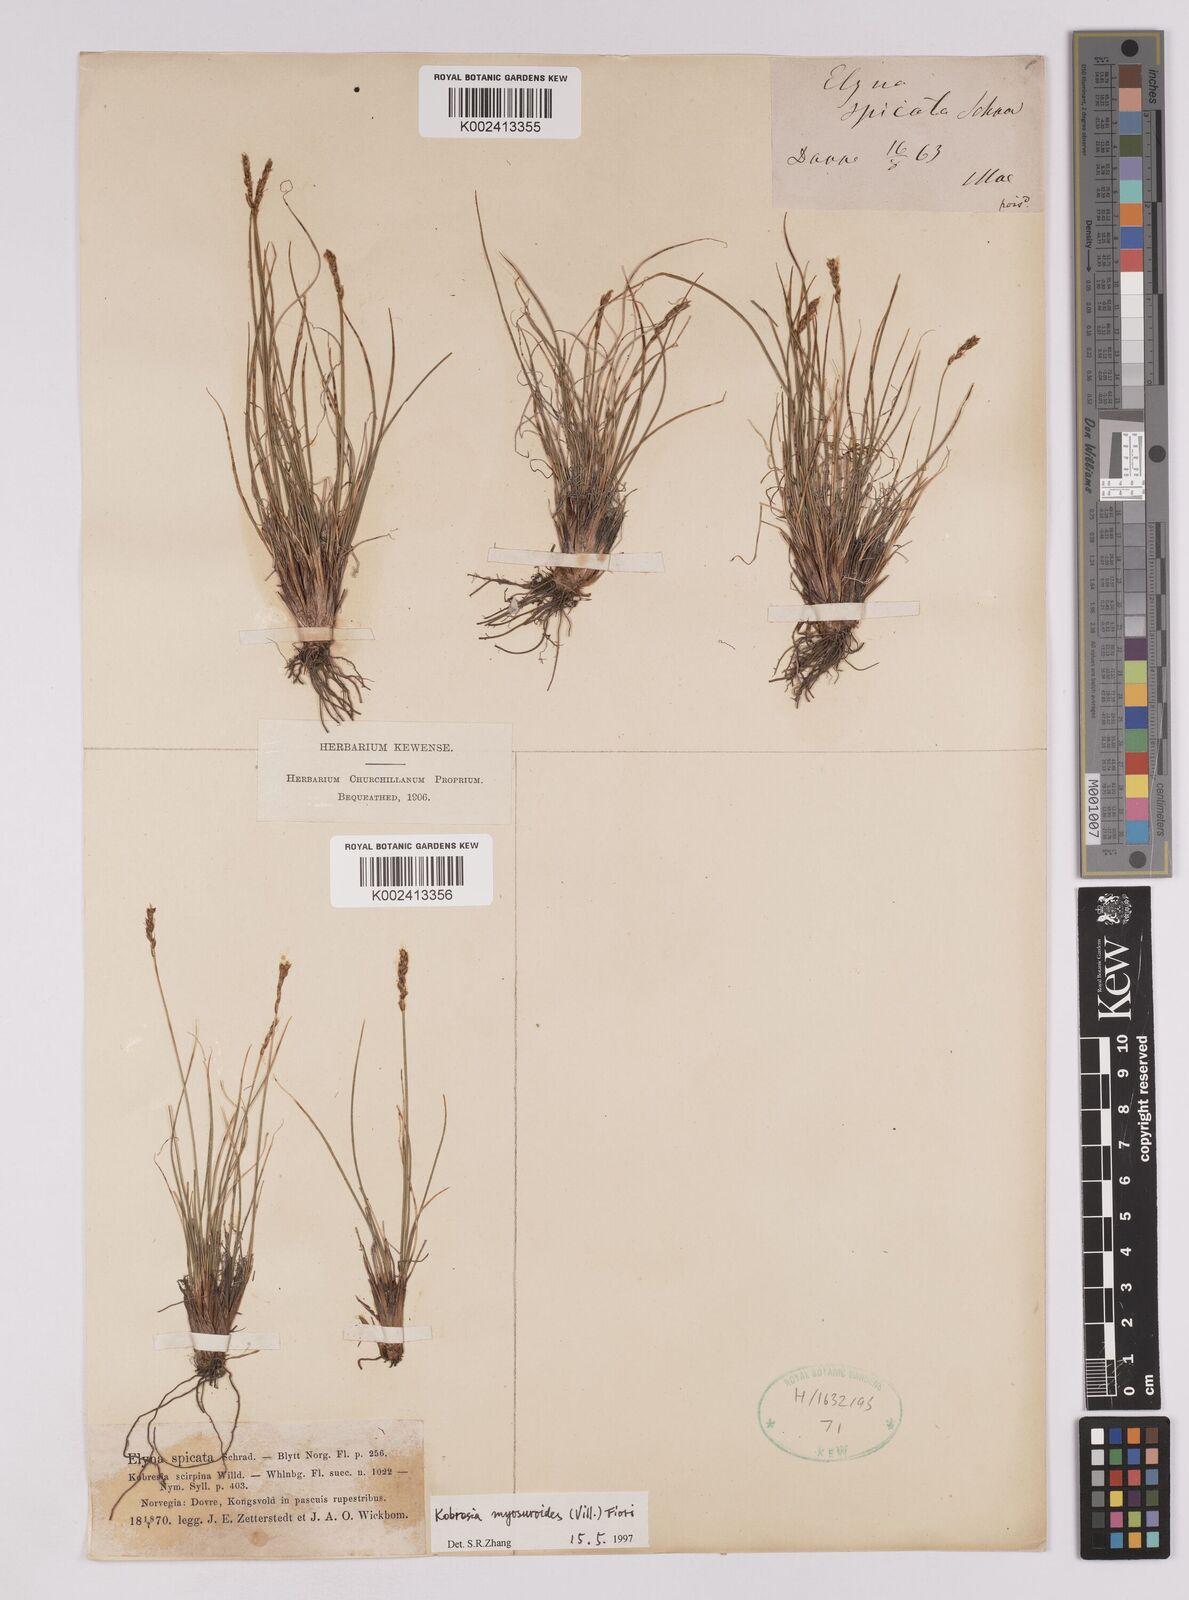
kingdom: Plantae
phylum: Tracheophyta
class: Liliopsida
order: Poales
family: Cyperaceae
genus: Carex
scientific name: Carex myosuroides
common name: Bellard's bog sedge
